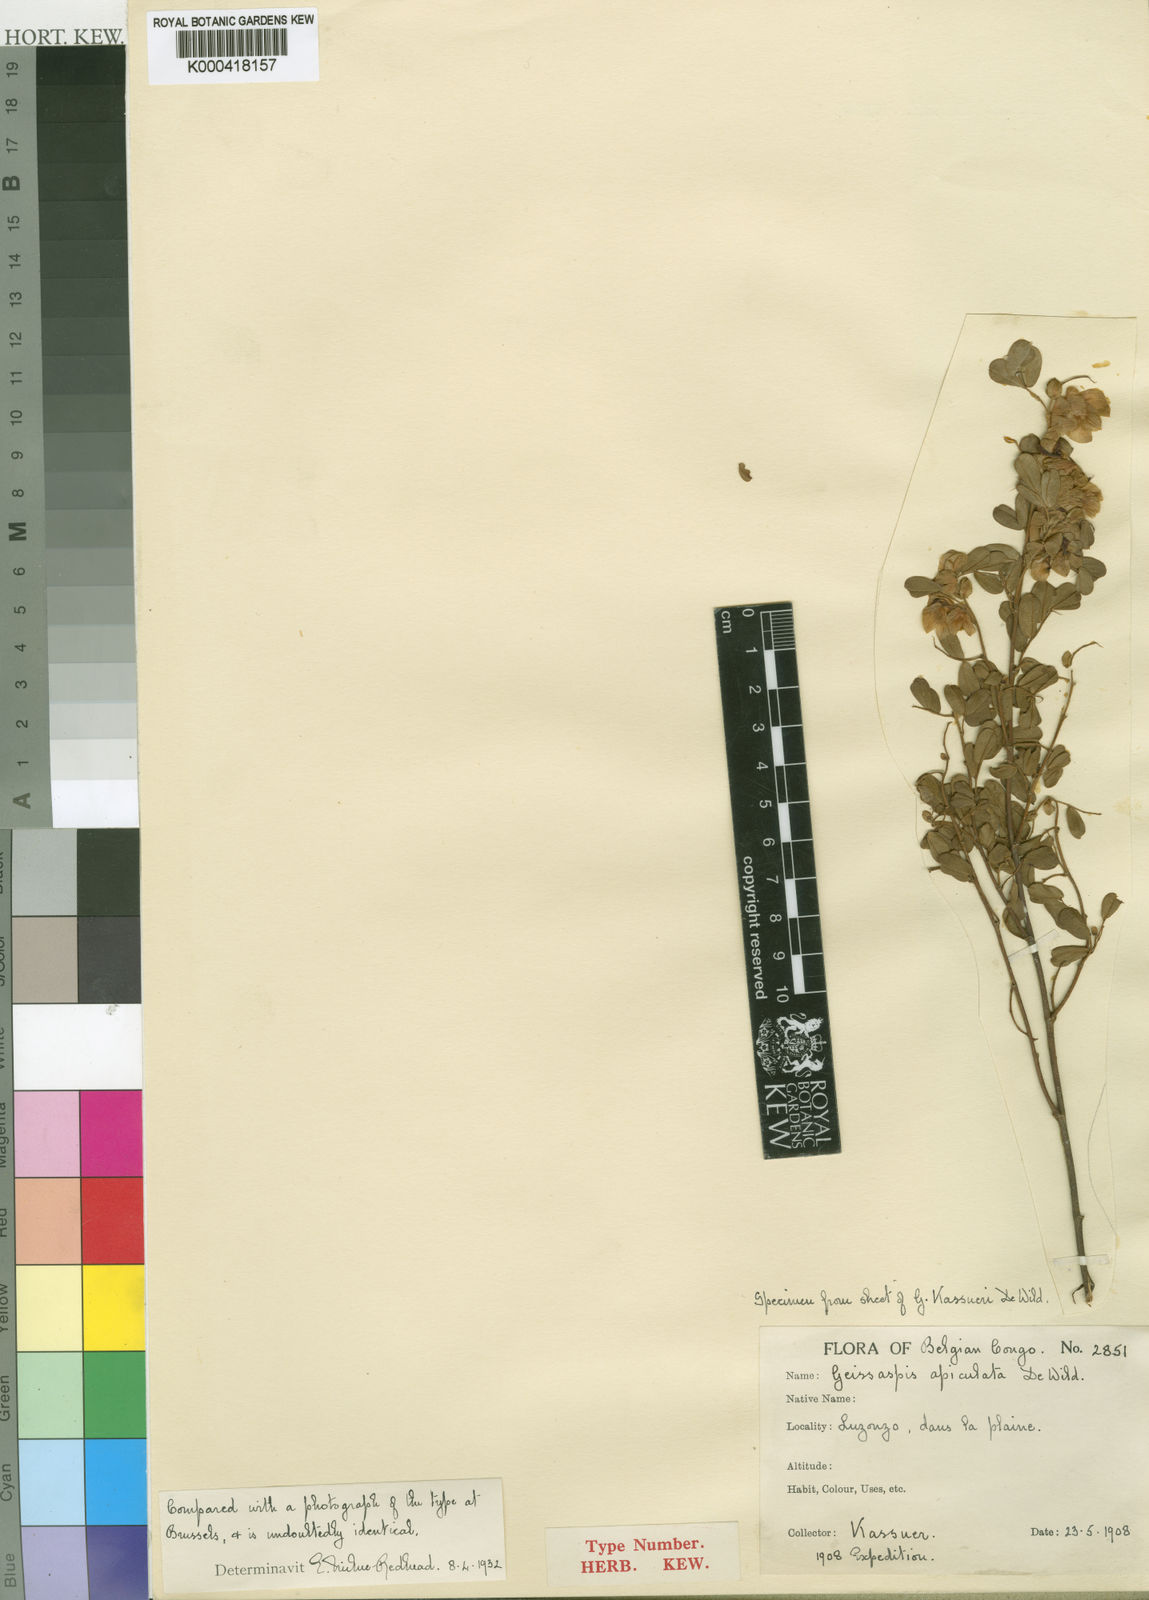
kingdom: Plantae
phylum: Tracheophyta
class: Magnoliopsida
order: Fabales
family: Fabaceae
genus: Humularia
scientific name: Humularia apiculata
